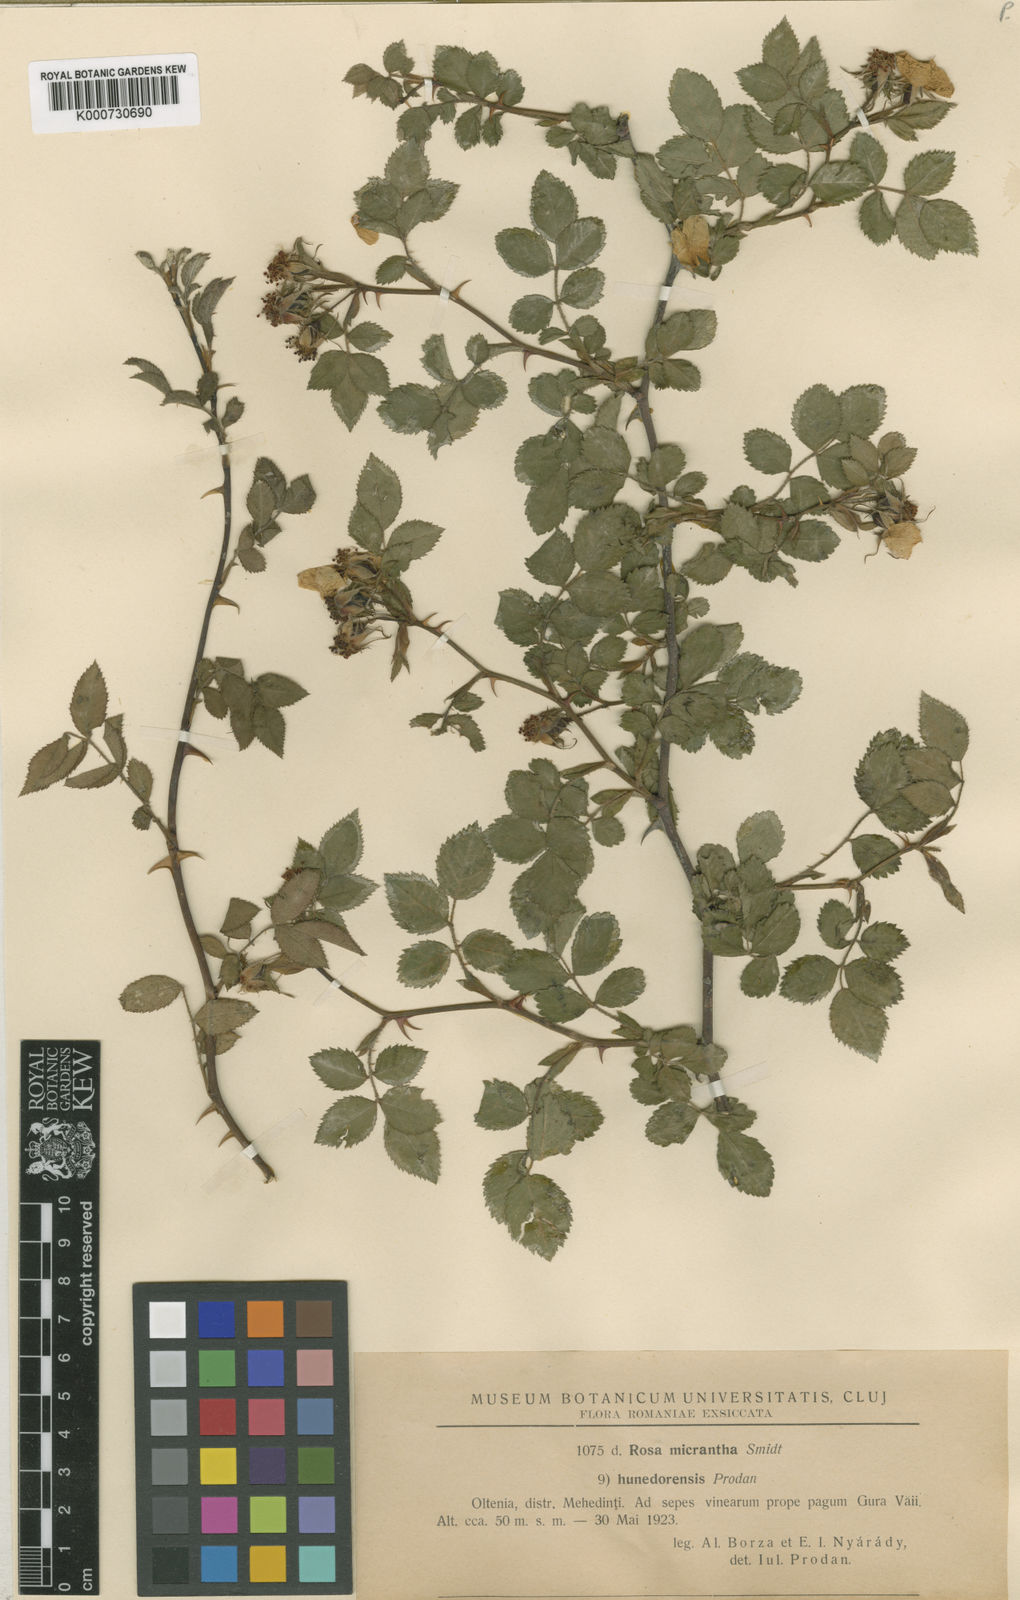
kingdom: Plantae
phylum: Tracheophyta
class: Magnoliopsida
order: Rosales
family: Rosaceae
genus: Rosa
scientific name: Rosa
